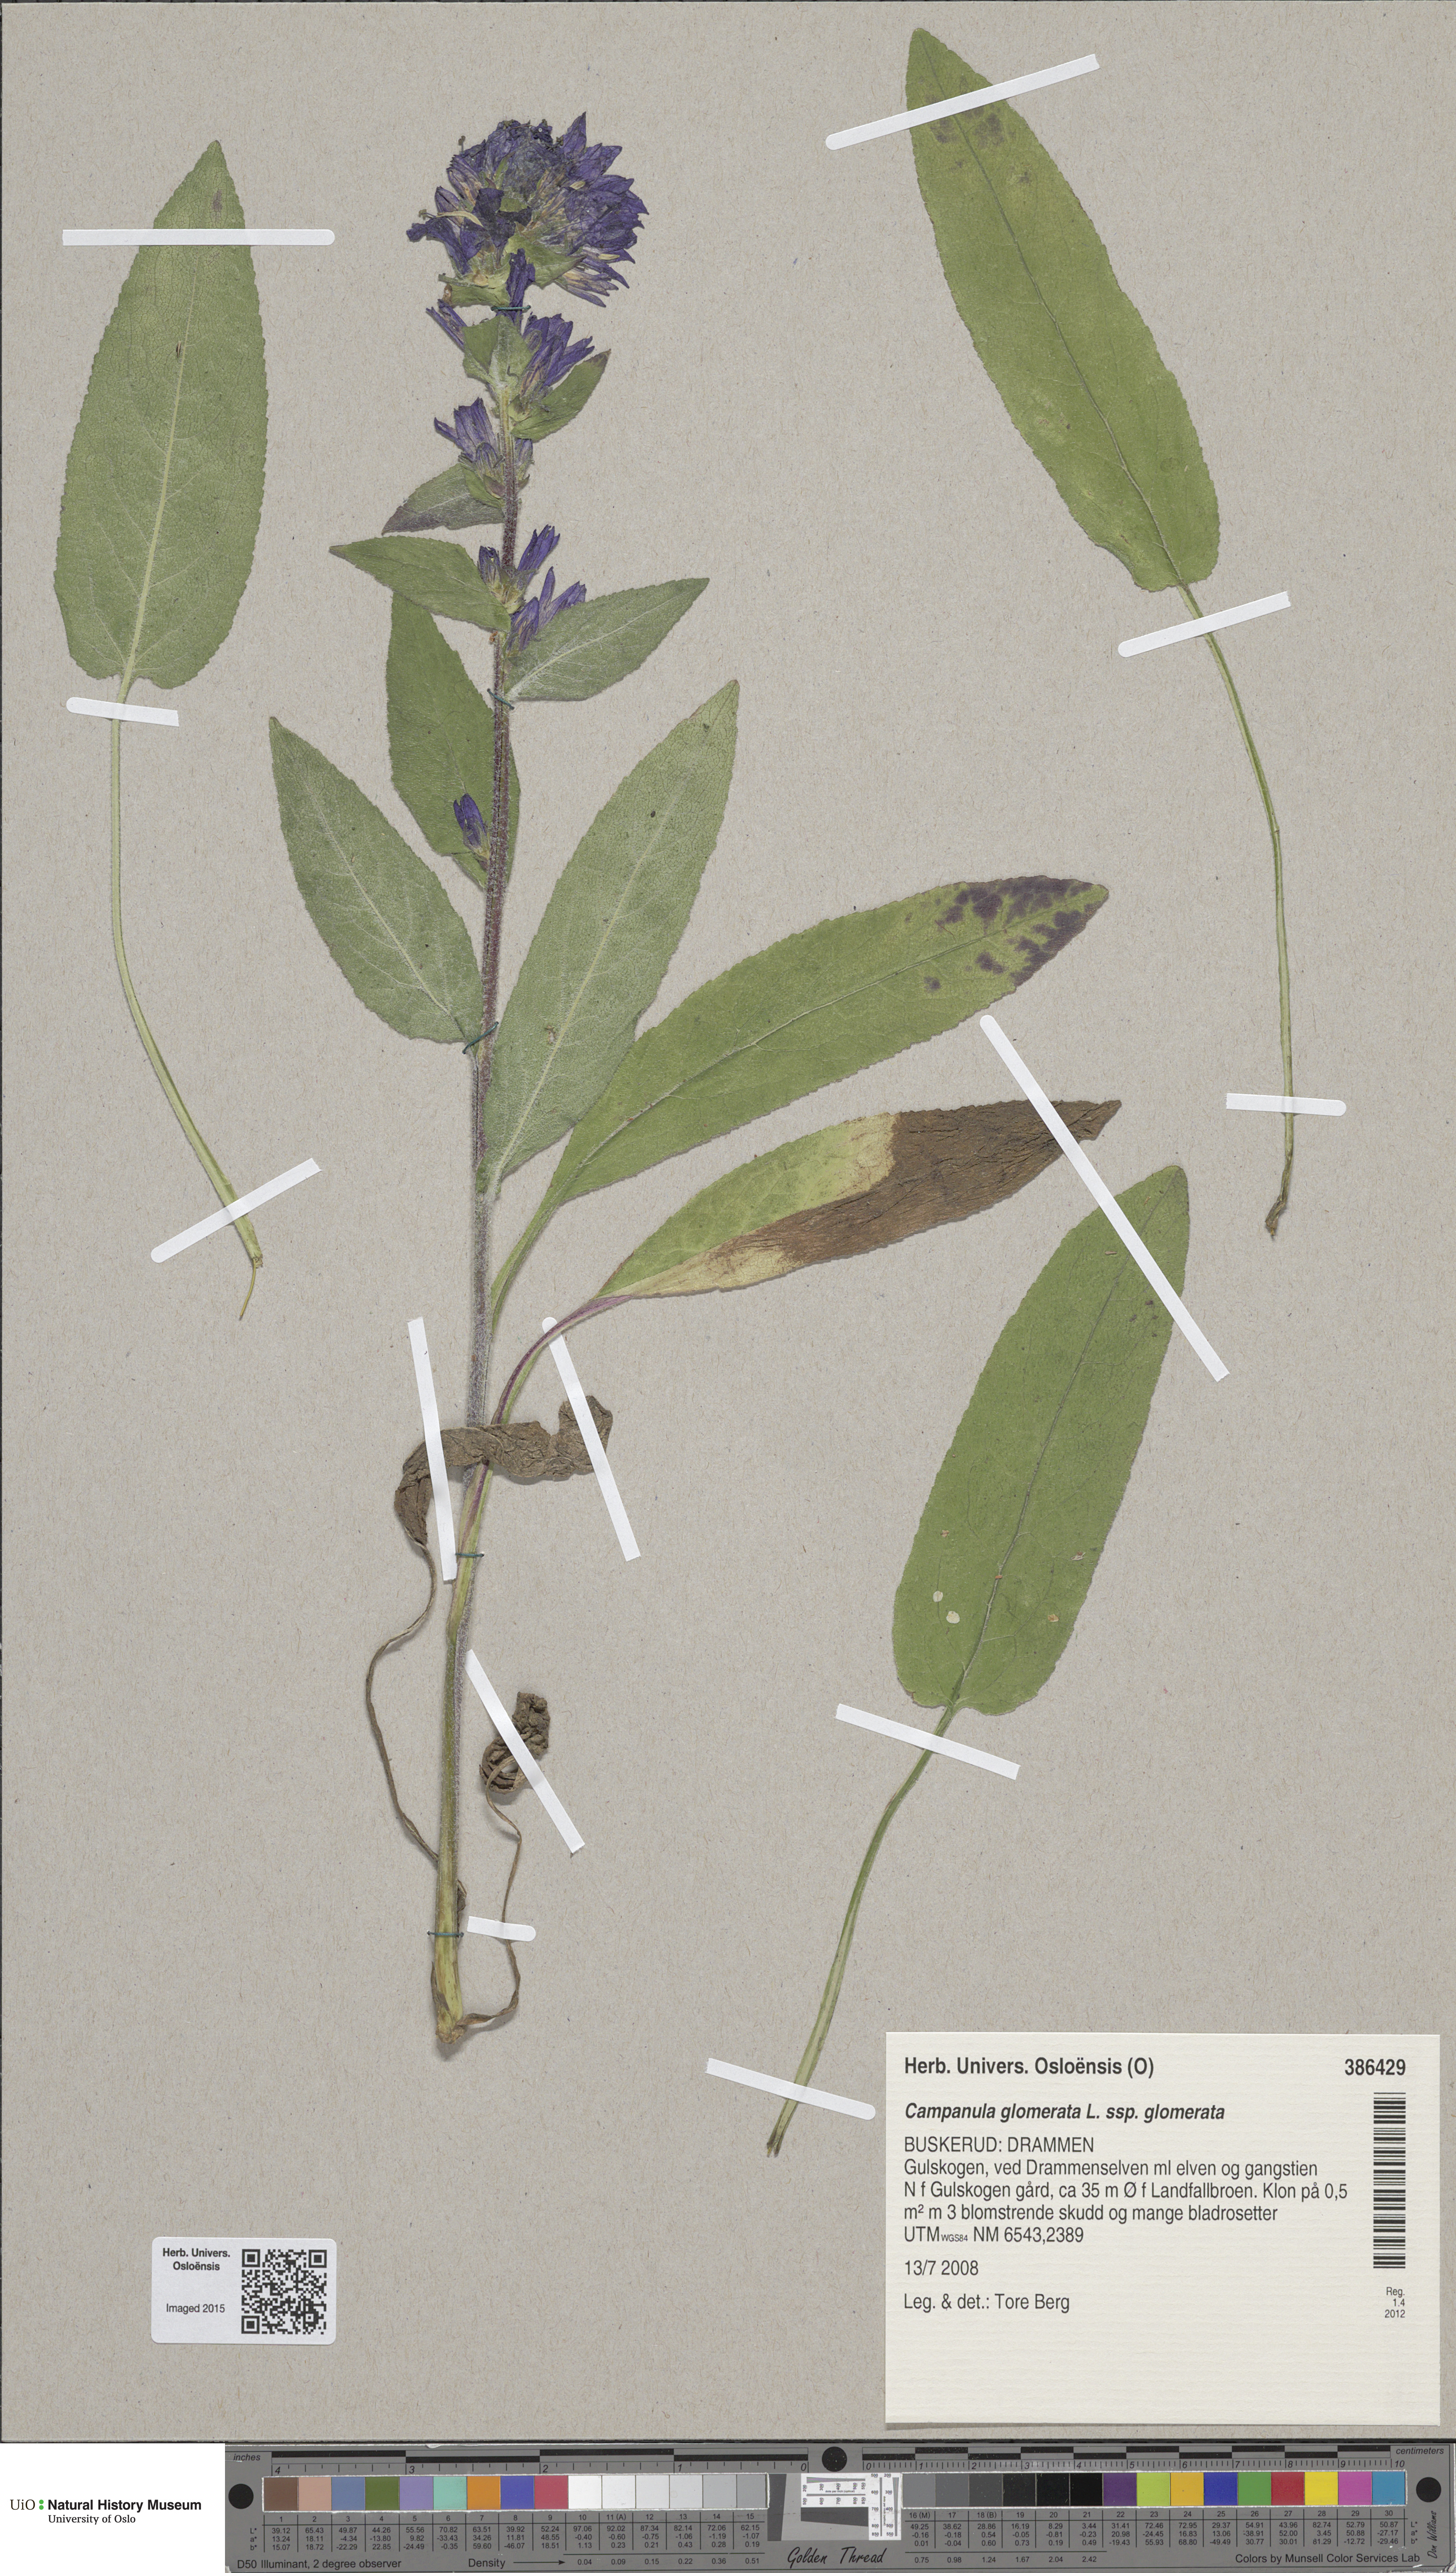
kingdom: Plantae
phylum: Tracheophyta
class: Magnoliopsida
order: Asterales
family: Campanulaceae
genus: Campanula
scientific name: Campanula glomerata
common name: Clustered bellflower
